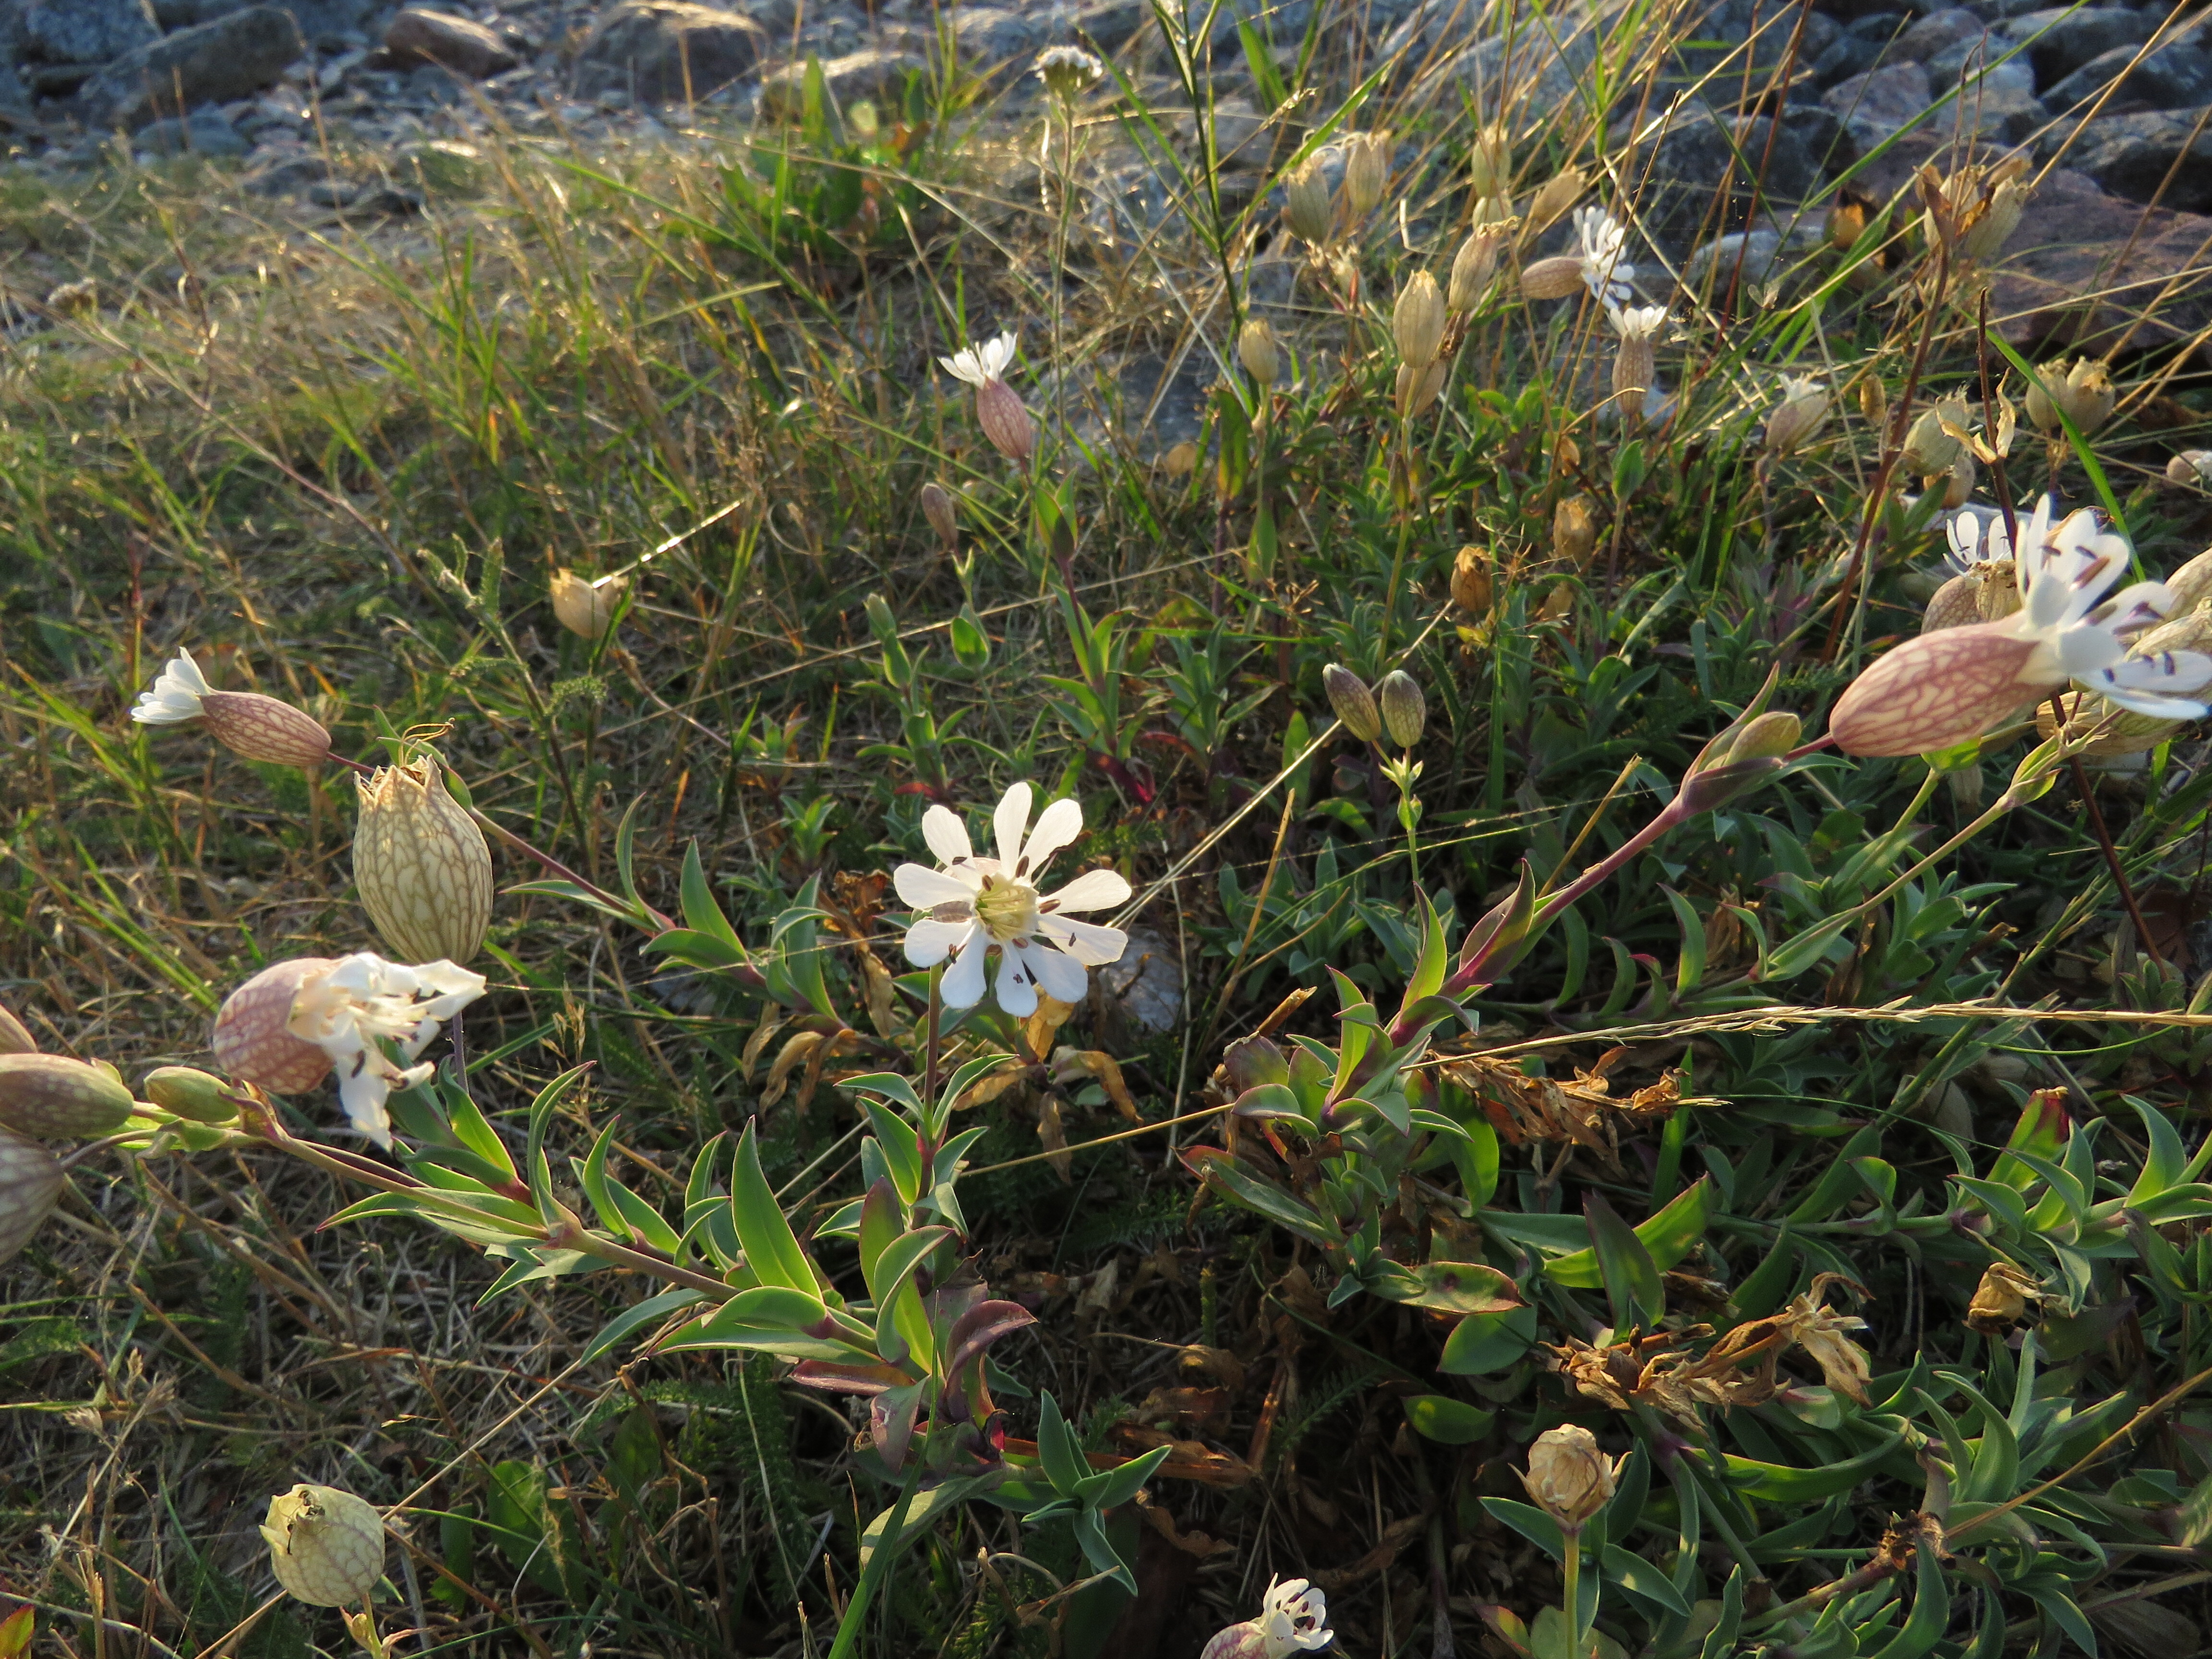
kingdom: Plantae
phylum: Tracheophyta
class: Magnoliopsida
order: Caryophyllales
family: Caryophyllaceae
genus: Silene
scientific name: Silene vulgaris
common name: Bladder campion
